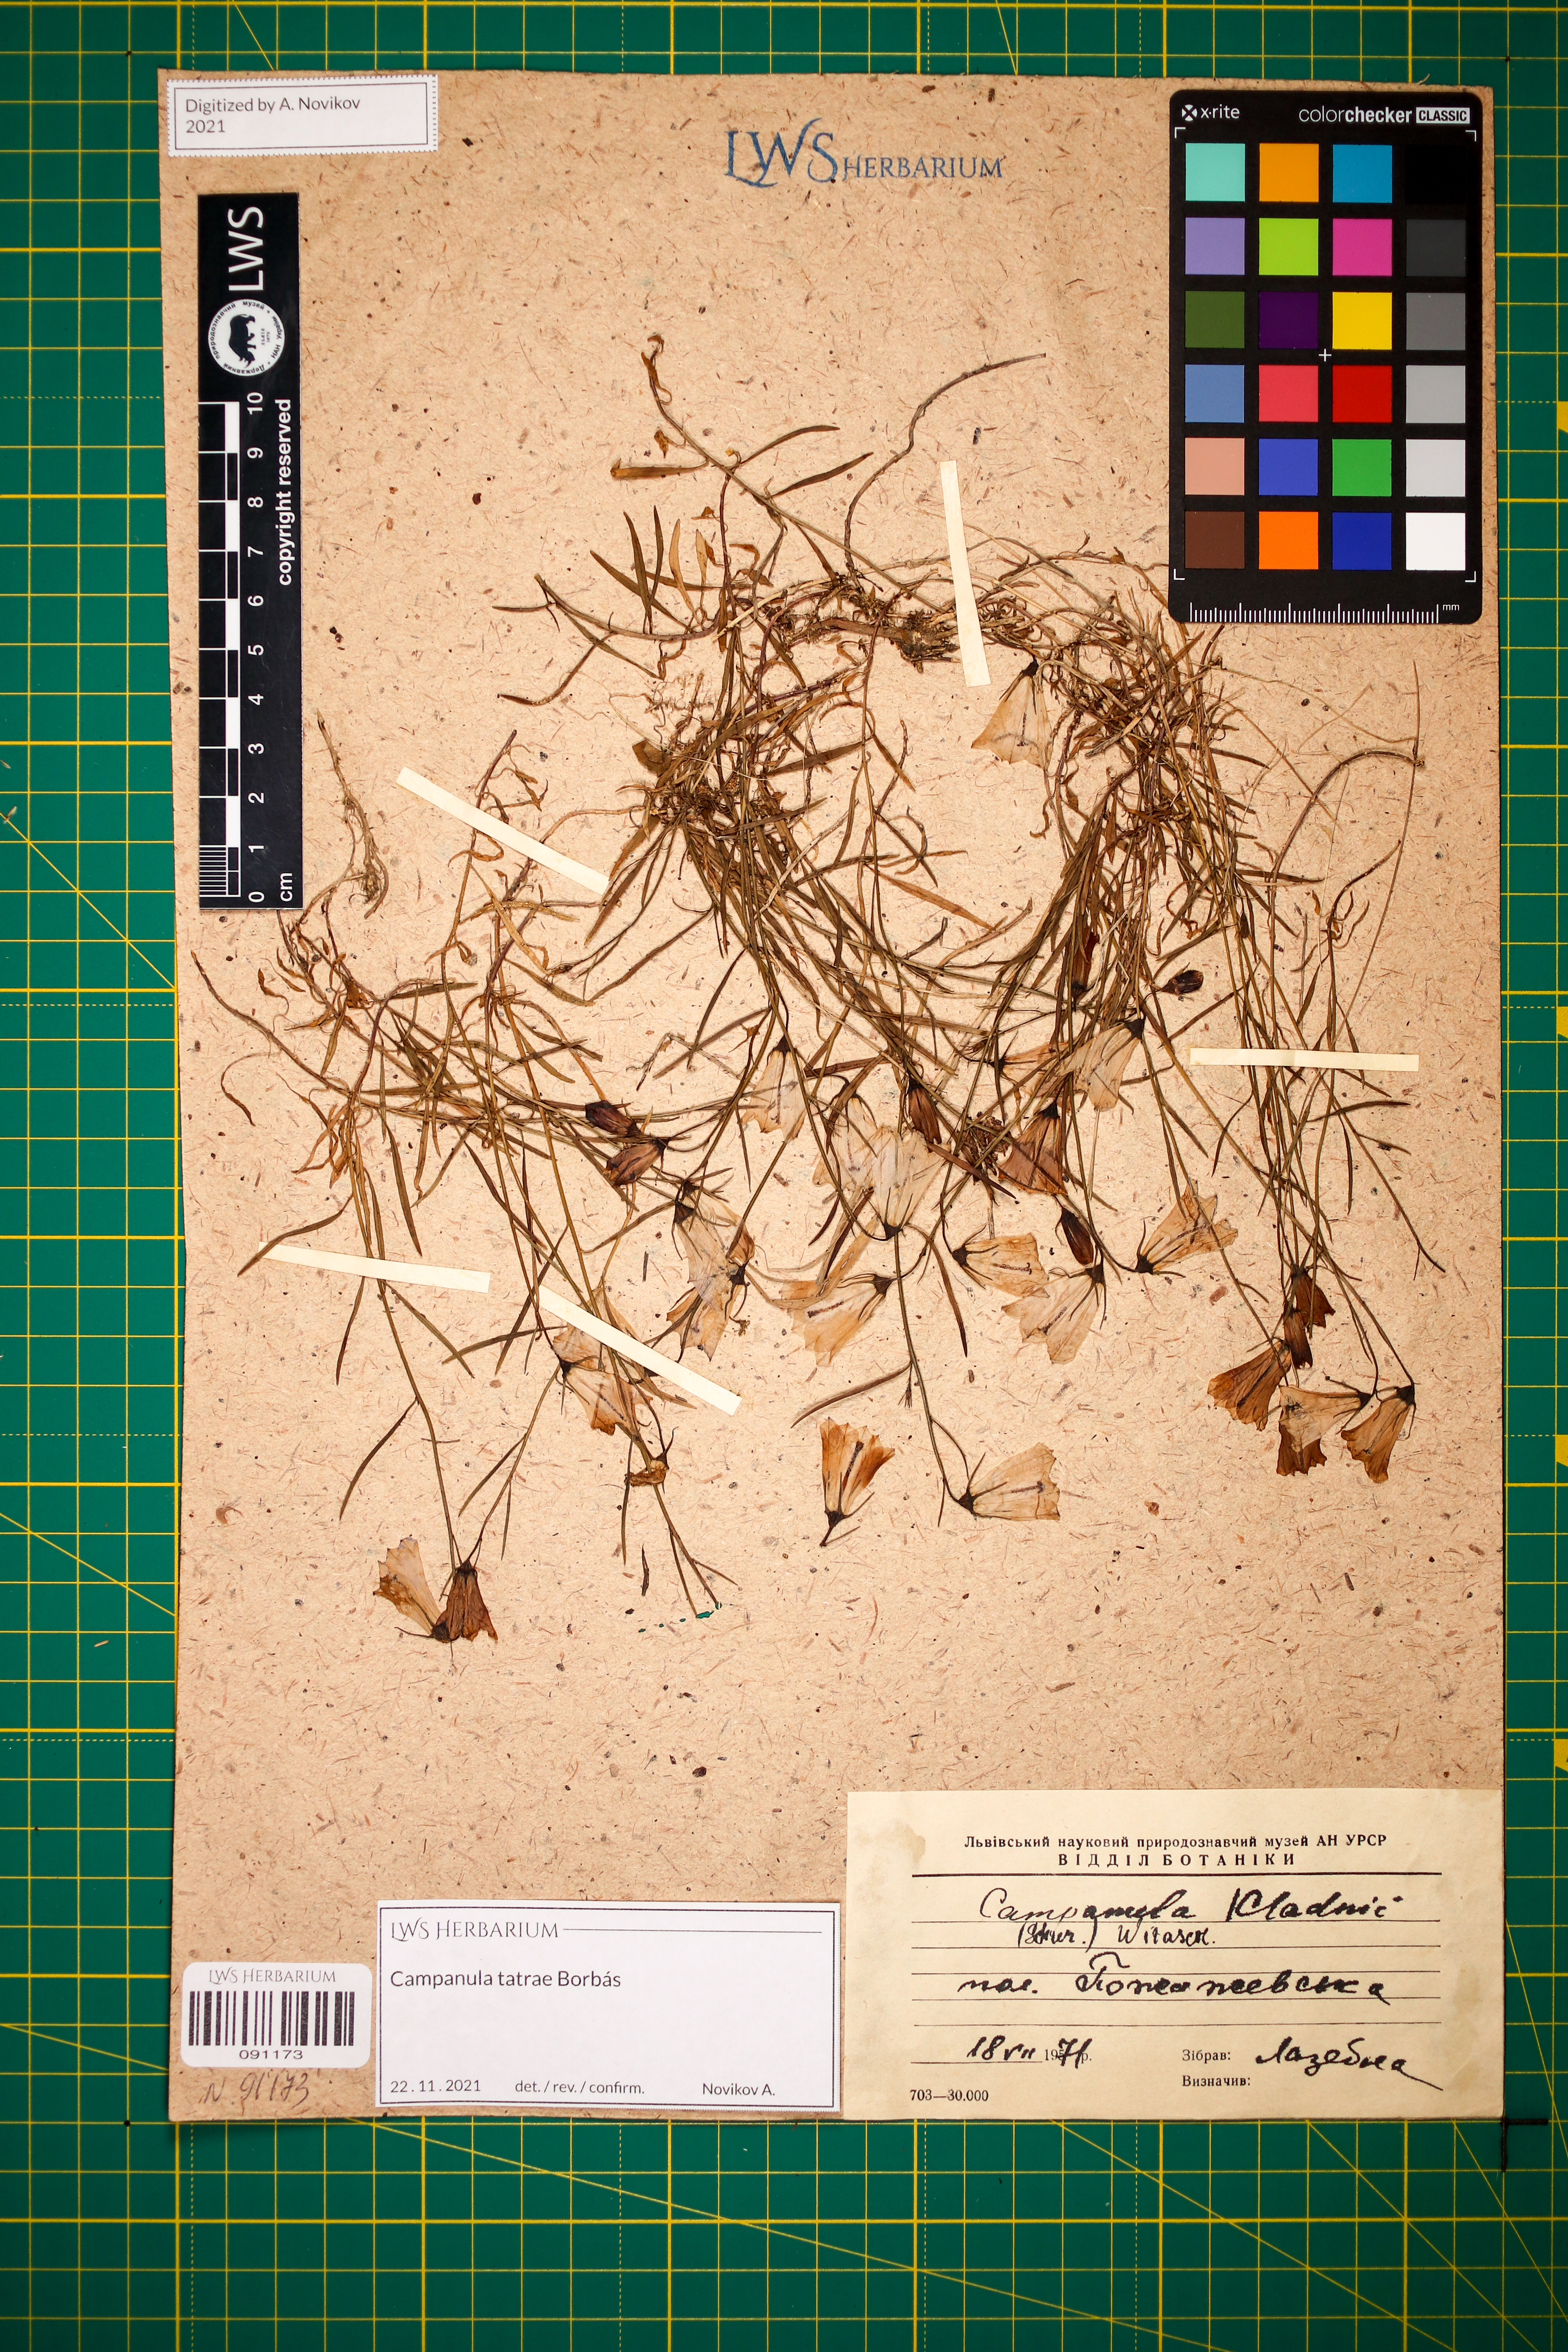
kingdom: Plantae
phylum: Tracheophyta
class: Magnoliopsida
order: Asterales
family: Campanulaceae
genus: Campanula
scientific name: Campanula kladniana
